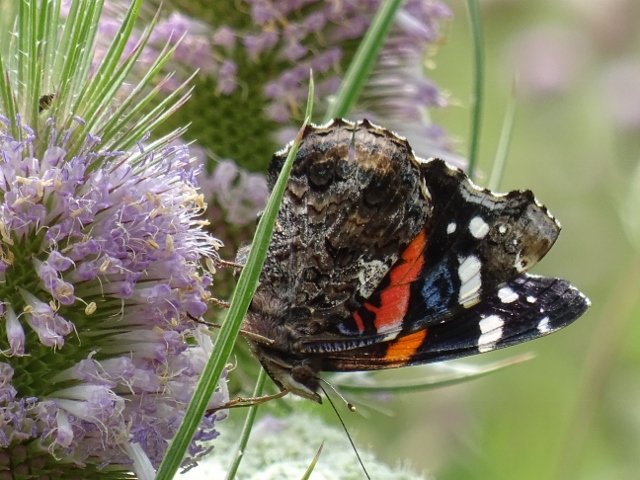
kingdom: Animalia
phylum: Arthropoda
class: Insecta
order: Lepidoptera
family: Nymphalidae
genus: Vanessa
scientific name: Vanessa atalanta
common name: Red Admiral
